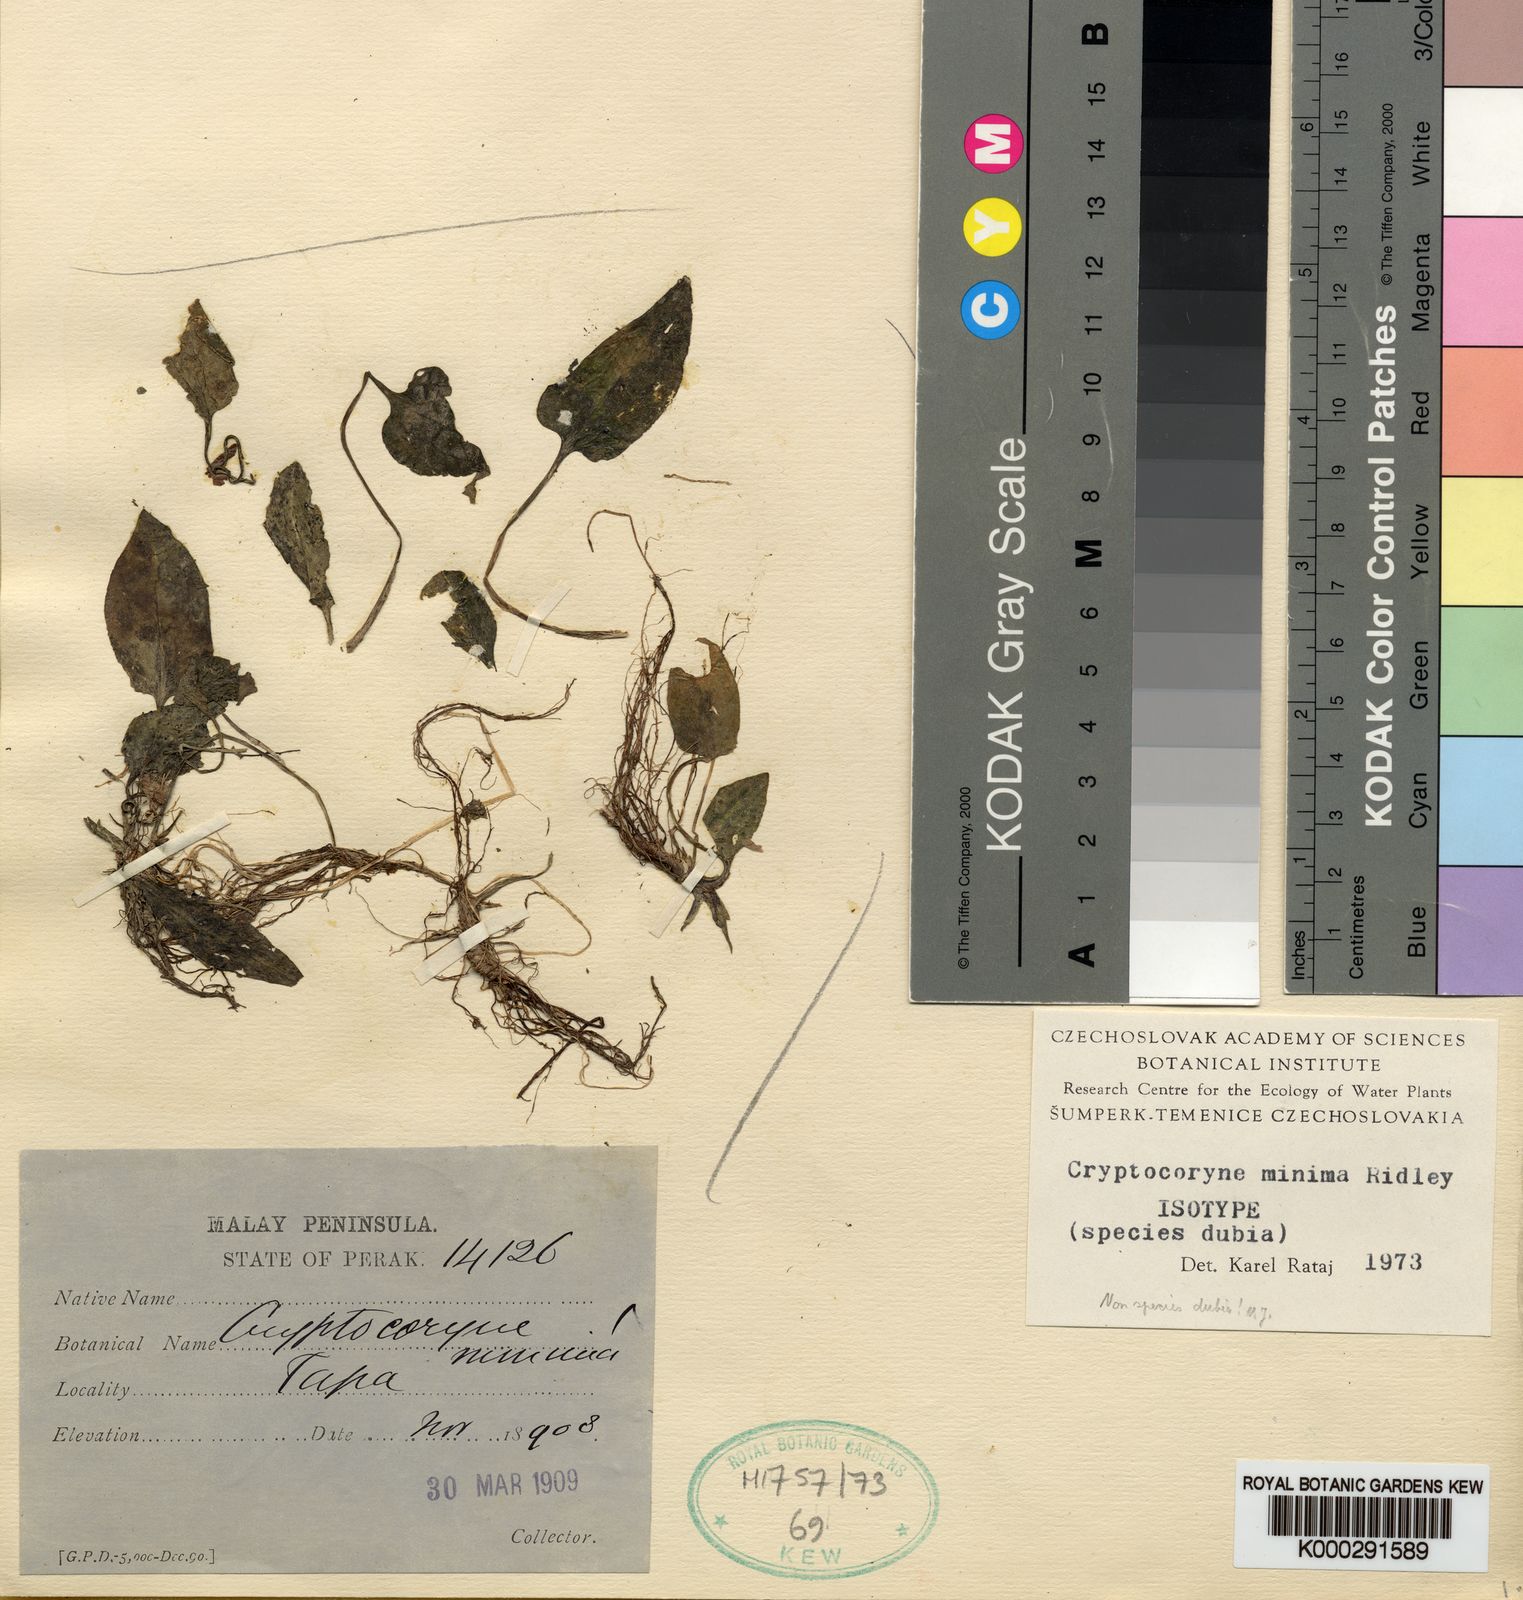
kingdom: Plantae
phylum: Tracheophyta
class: Liliopsida
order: Alismatales
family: Araceae
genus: Cryptocoryne
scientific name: Cryptocoryne minima
